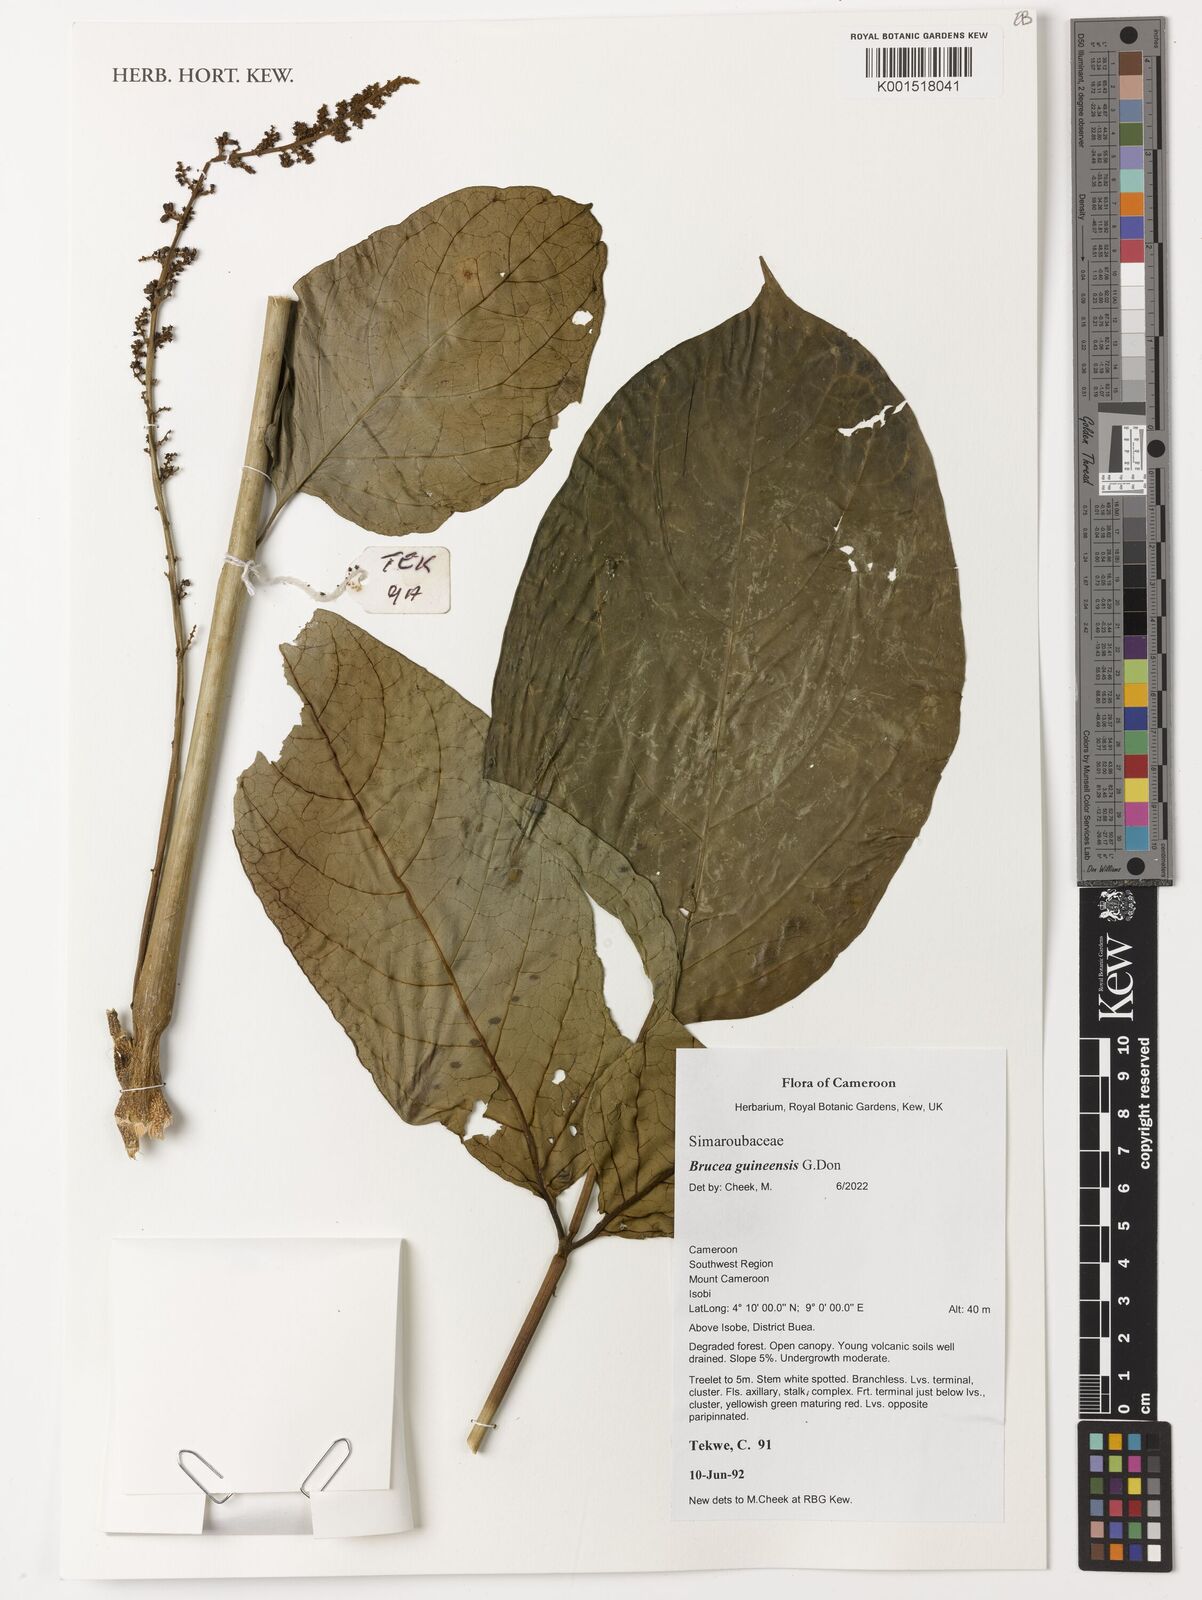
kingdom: Plantae
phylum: Tracheophyta
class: Magnoliopsida
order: Sapindales
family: Anacardiaceae
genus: Trichoscypha
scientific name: Trichoscypha smythei
